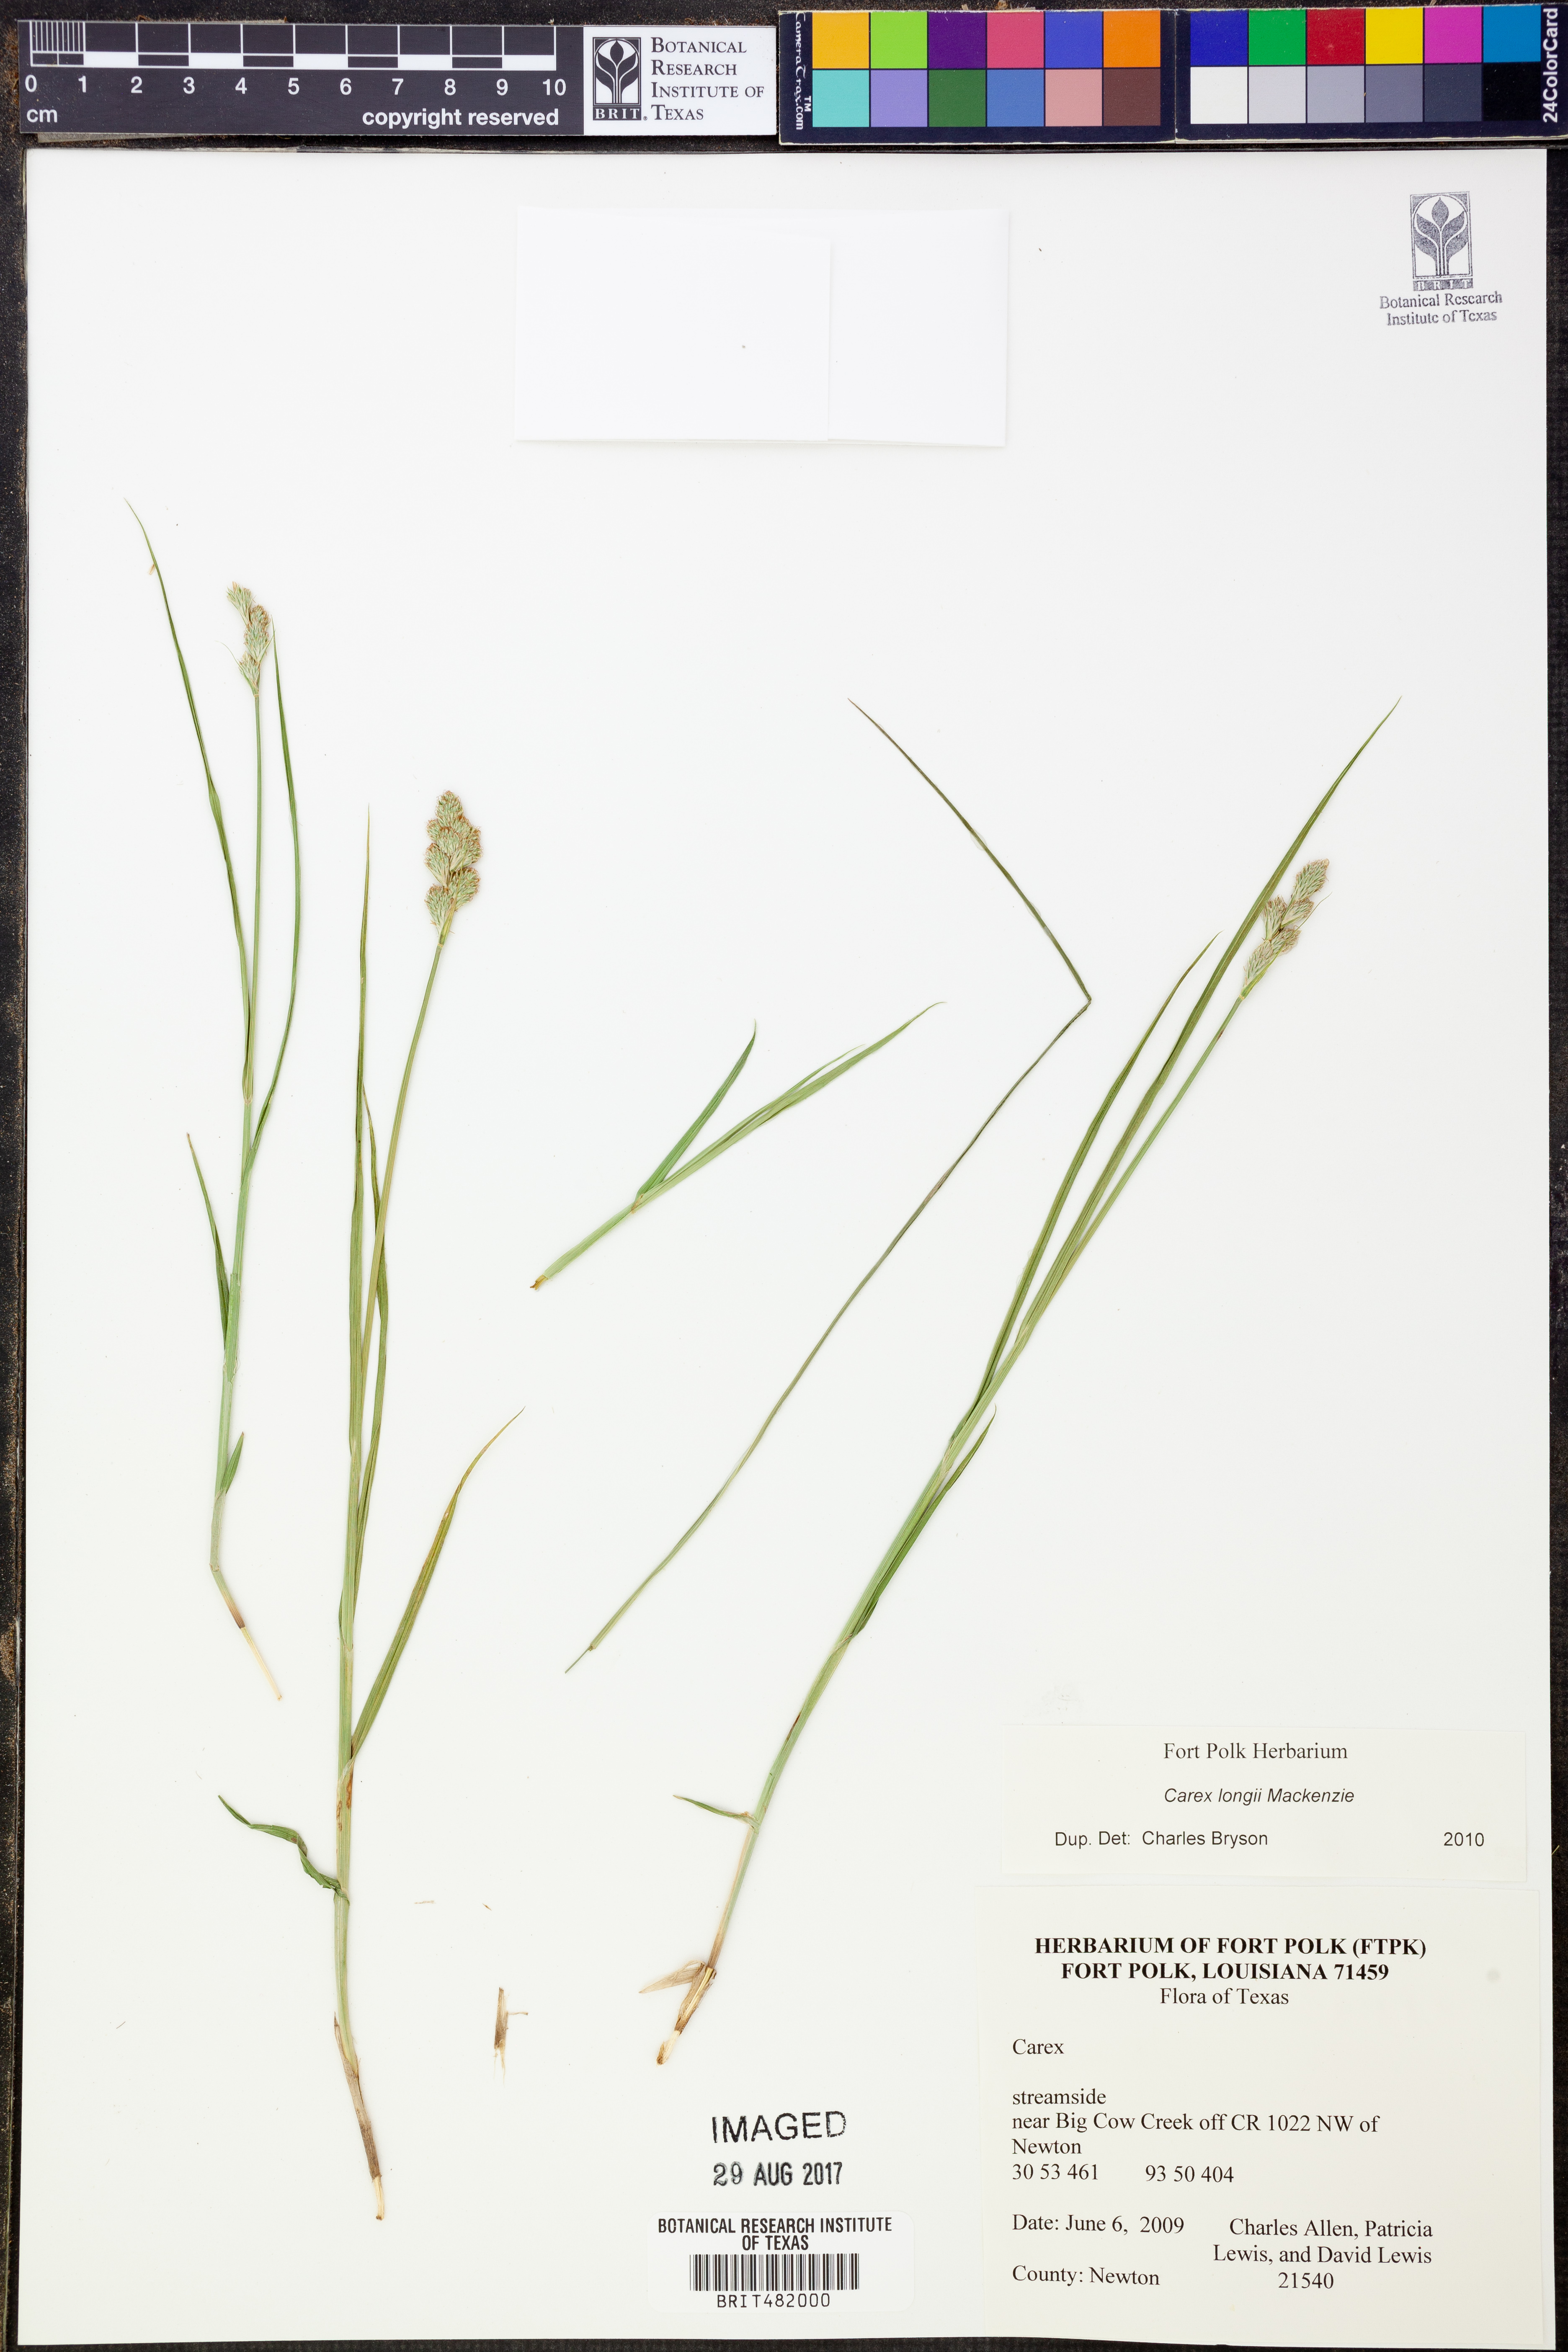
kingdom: Plantae
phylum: Tracheophyta
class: Liliopsida
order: Poales
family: Cyperaceae
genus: Carex
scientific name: Carex longii
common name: Long's sedge
